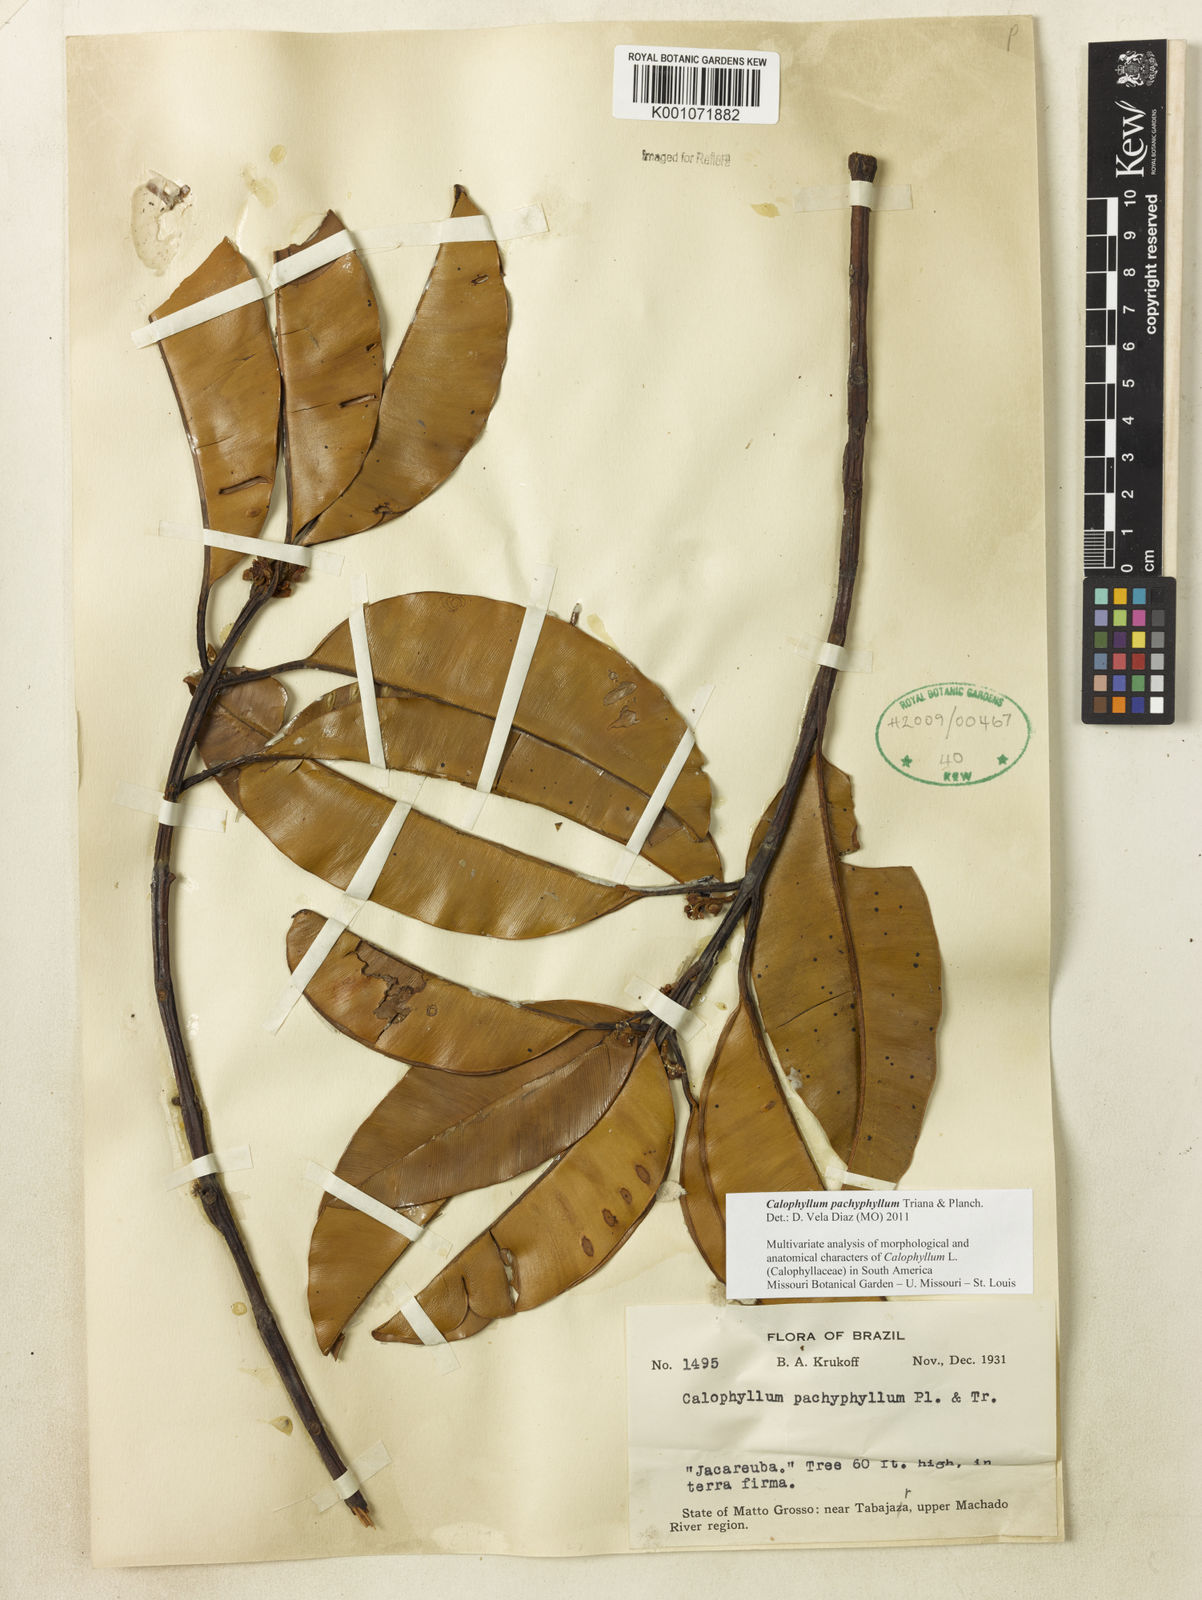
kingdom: Plantae
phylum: Tracheophyta
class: Magnoliopsida
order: Malpighiales
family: Calophyllaceae
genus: Calophyllum
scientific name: Calophyllum pachyphyllum
